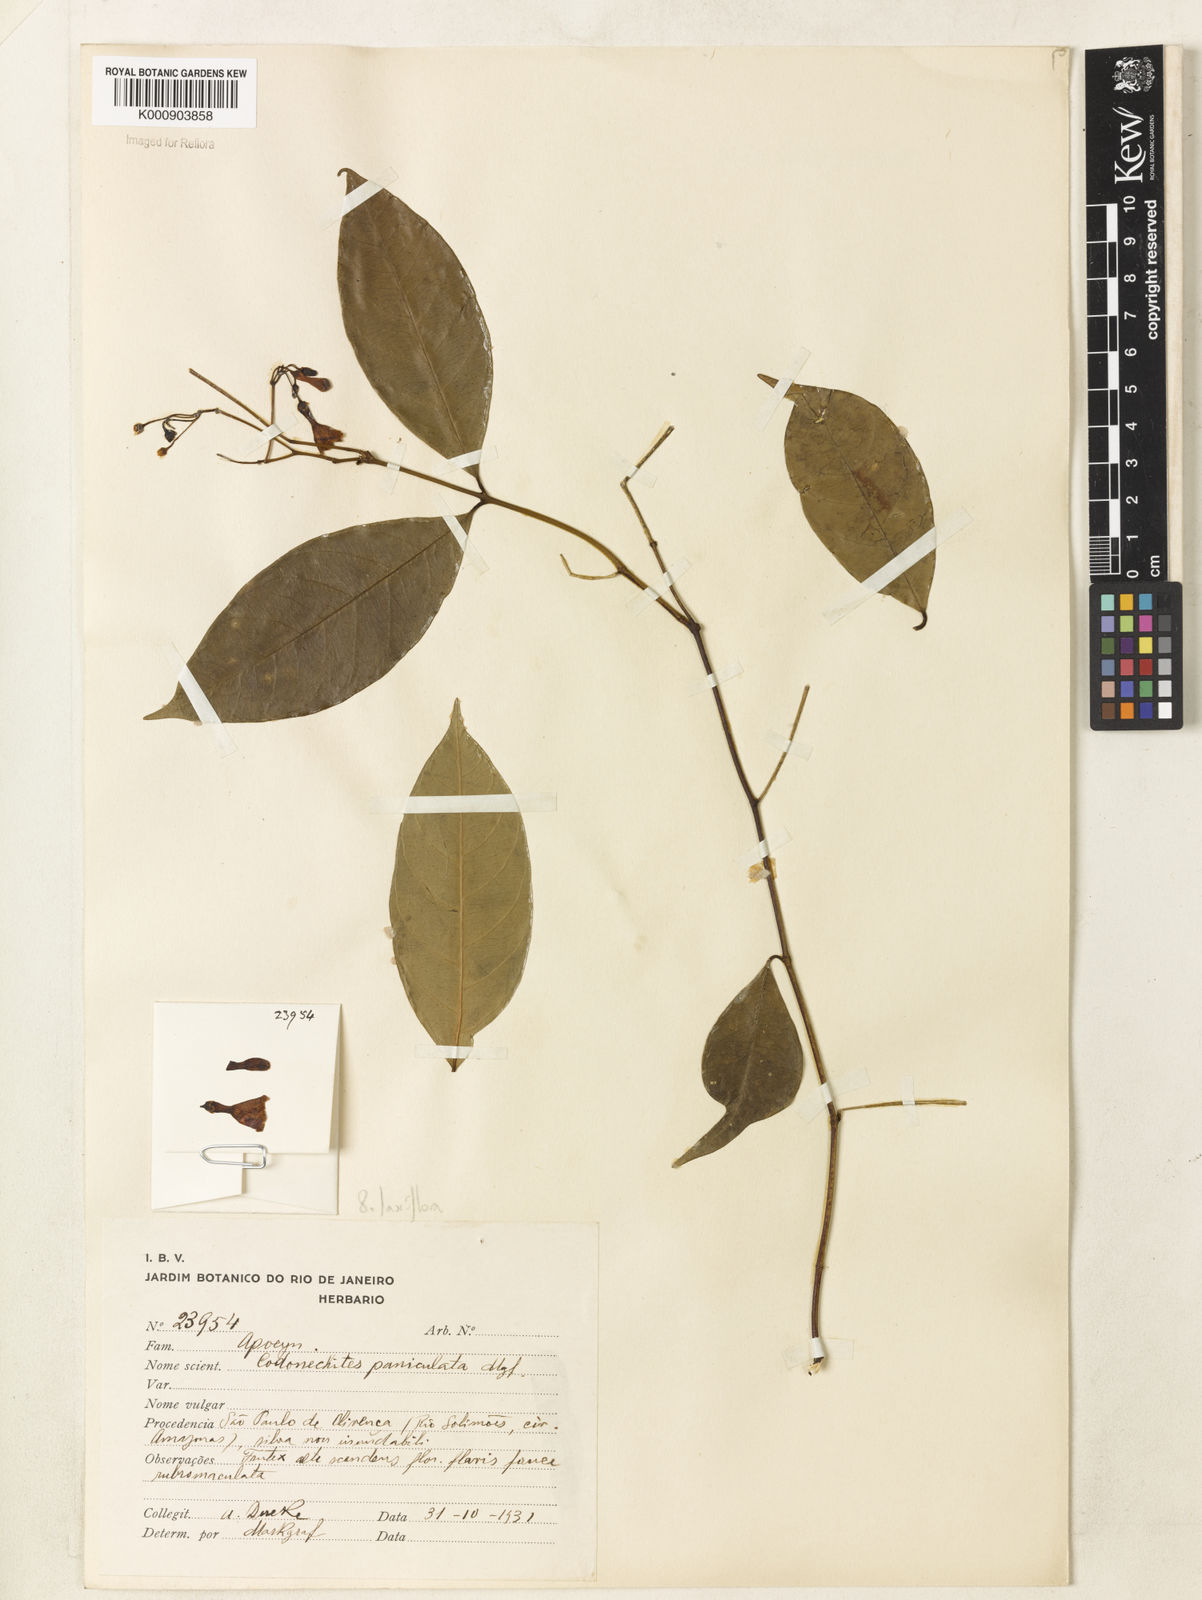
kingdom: Plantae
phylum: Tracheophyta
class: Magnoliopsida
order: Gentianales
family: Apocynaceae
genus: Odontadenia
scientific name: Odontadenia laxiflora
